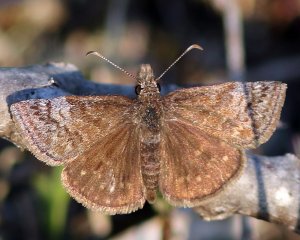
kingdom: Animalia
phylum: Arthropoda
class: Insecta
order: Lepidoptera
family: Hesperiidae
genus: Erynnis
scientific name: Erynnis icelus
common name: Dreamy Duskywing
